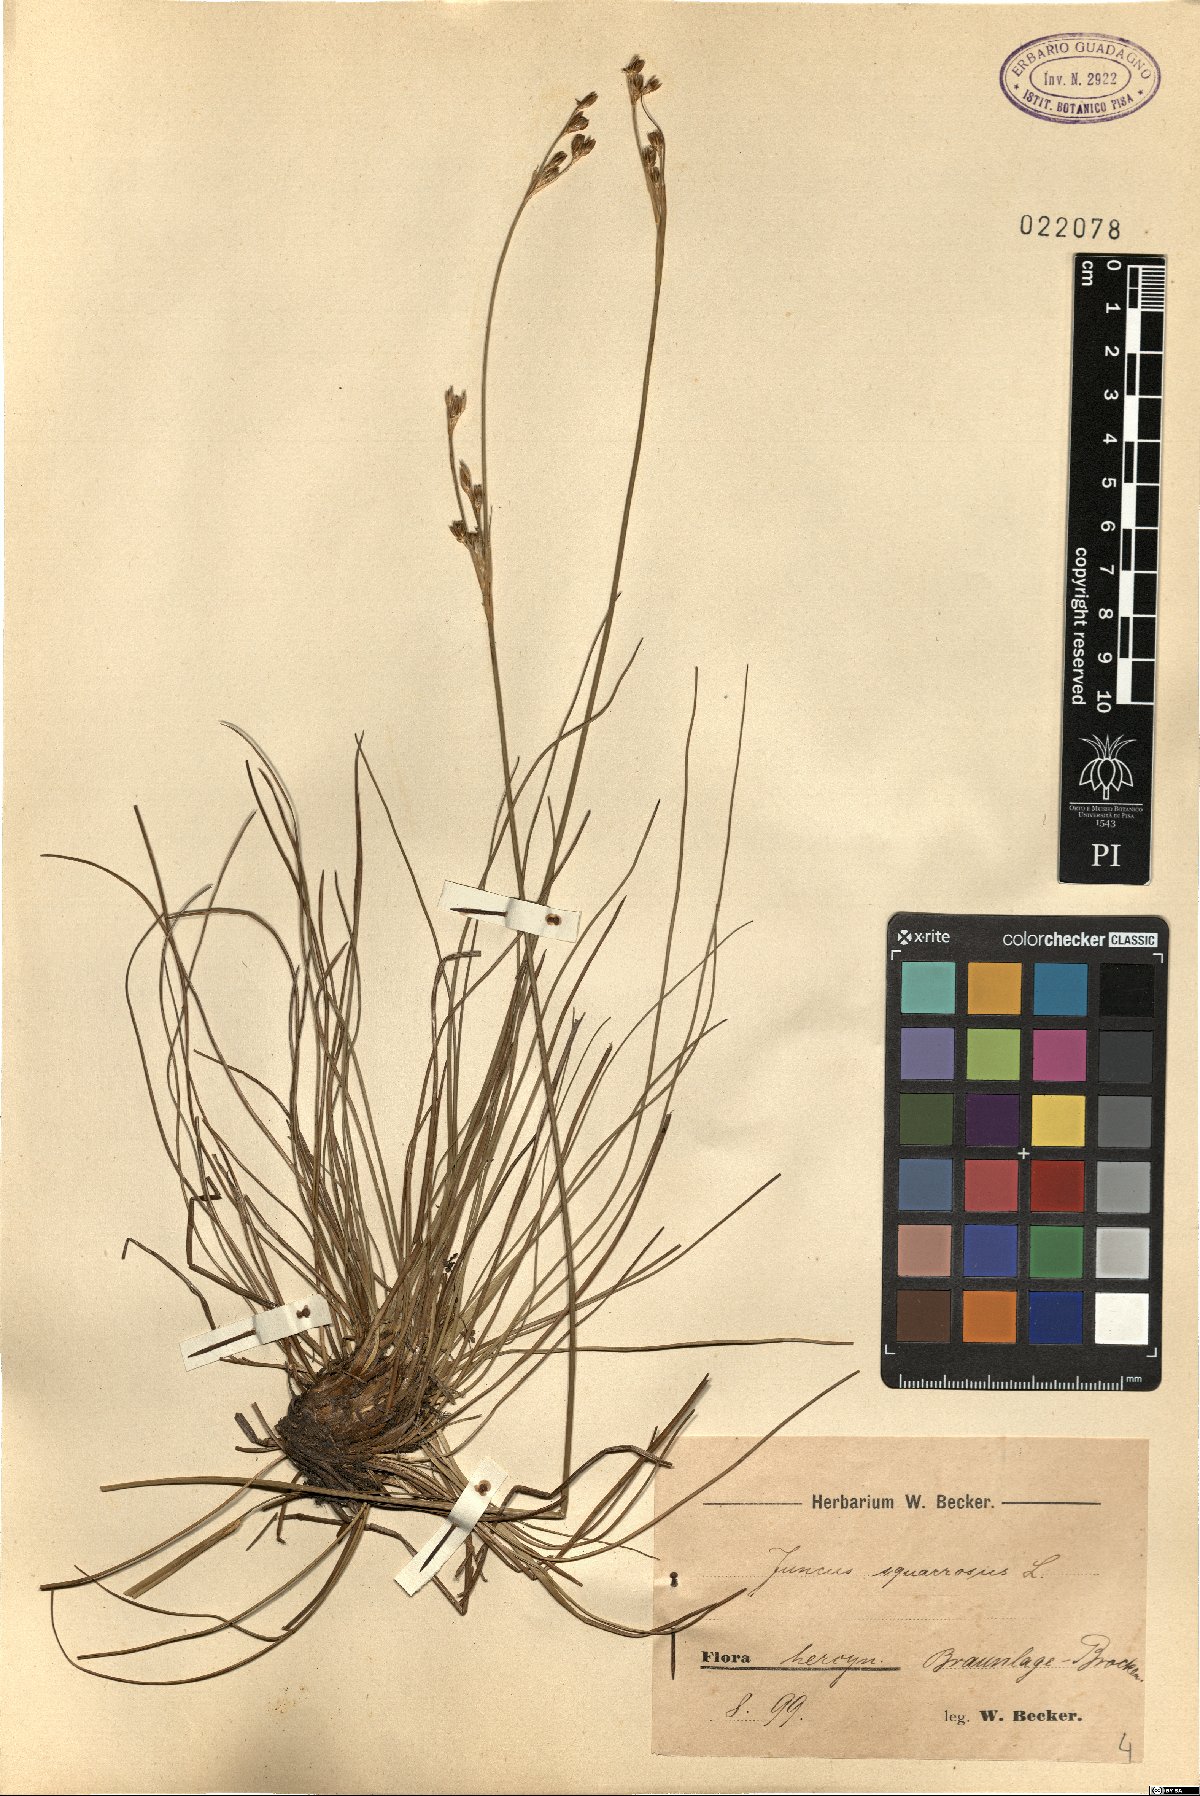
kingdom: Plantae
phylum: Tracheophyta
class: Liliopsida
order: Poales
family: Juncaceae
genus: Juncus
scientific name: Juncus squarrosus
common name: Heath rush
